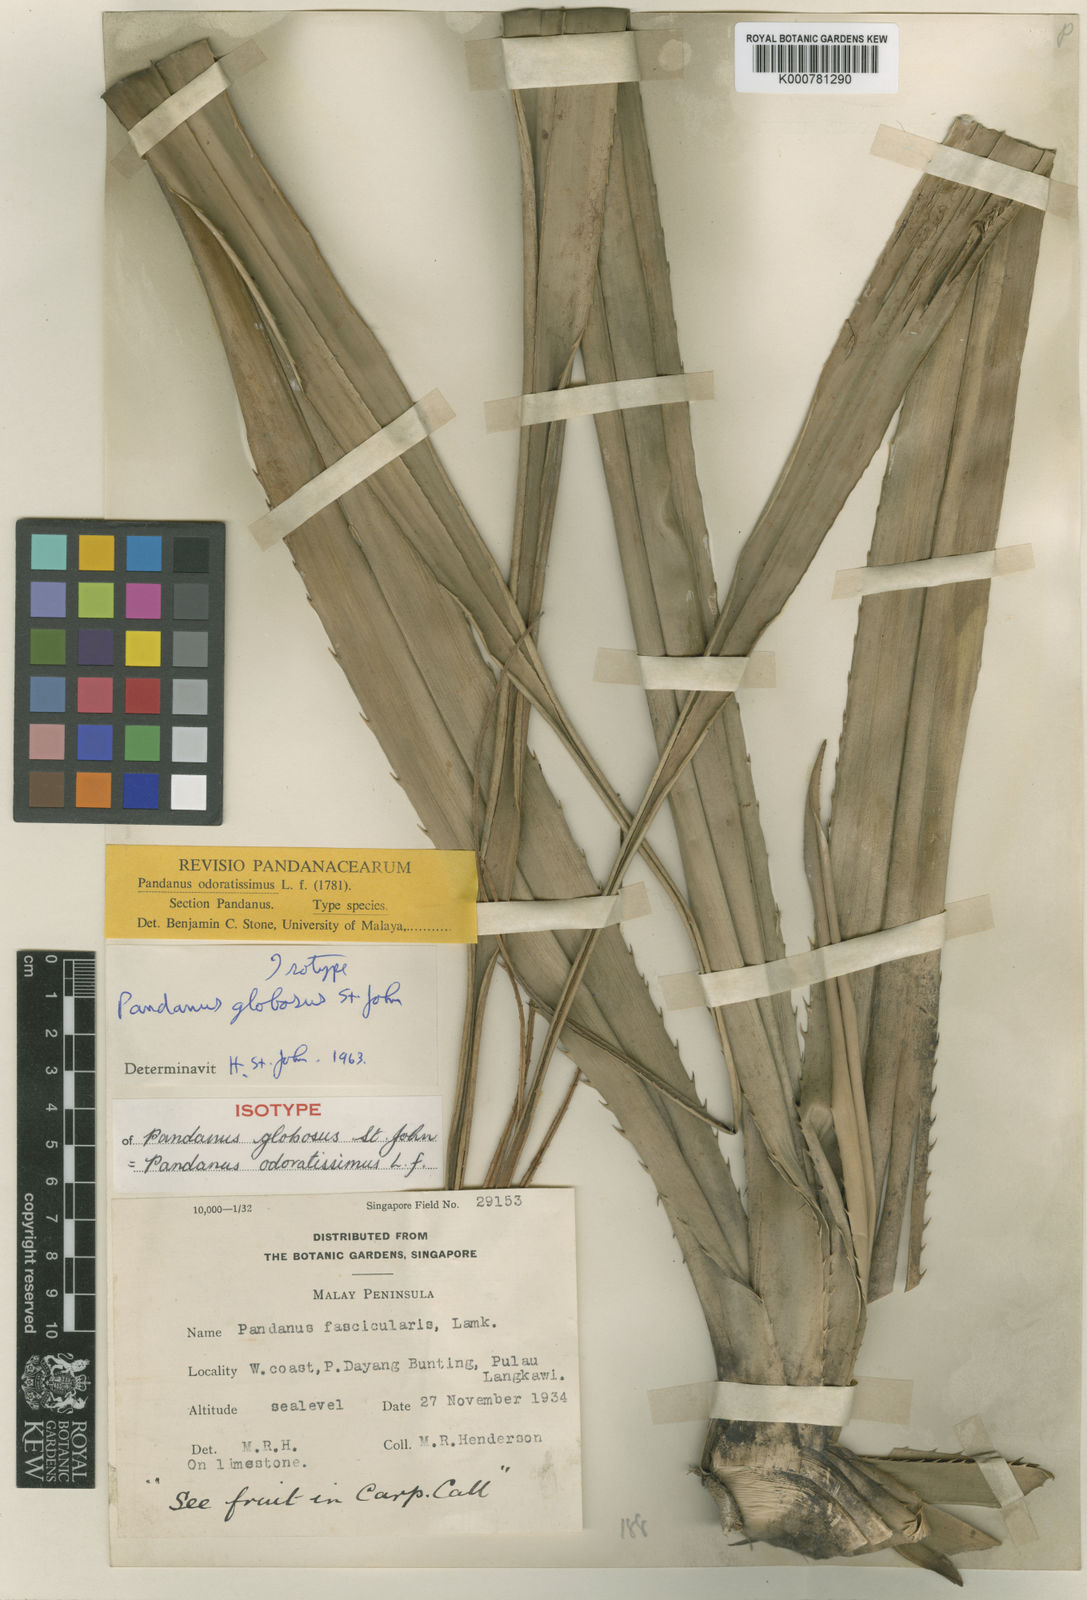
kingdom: Plantae
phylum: Tracheophyta
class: Liliopsida
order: Pandanales
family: Pandanaceae
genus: Pandanus
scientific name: Pandanus odorifer
